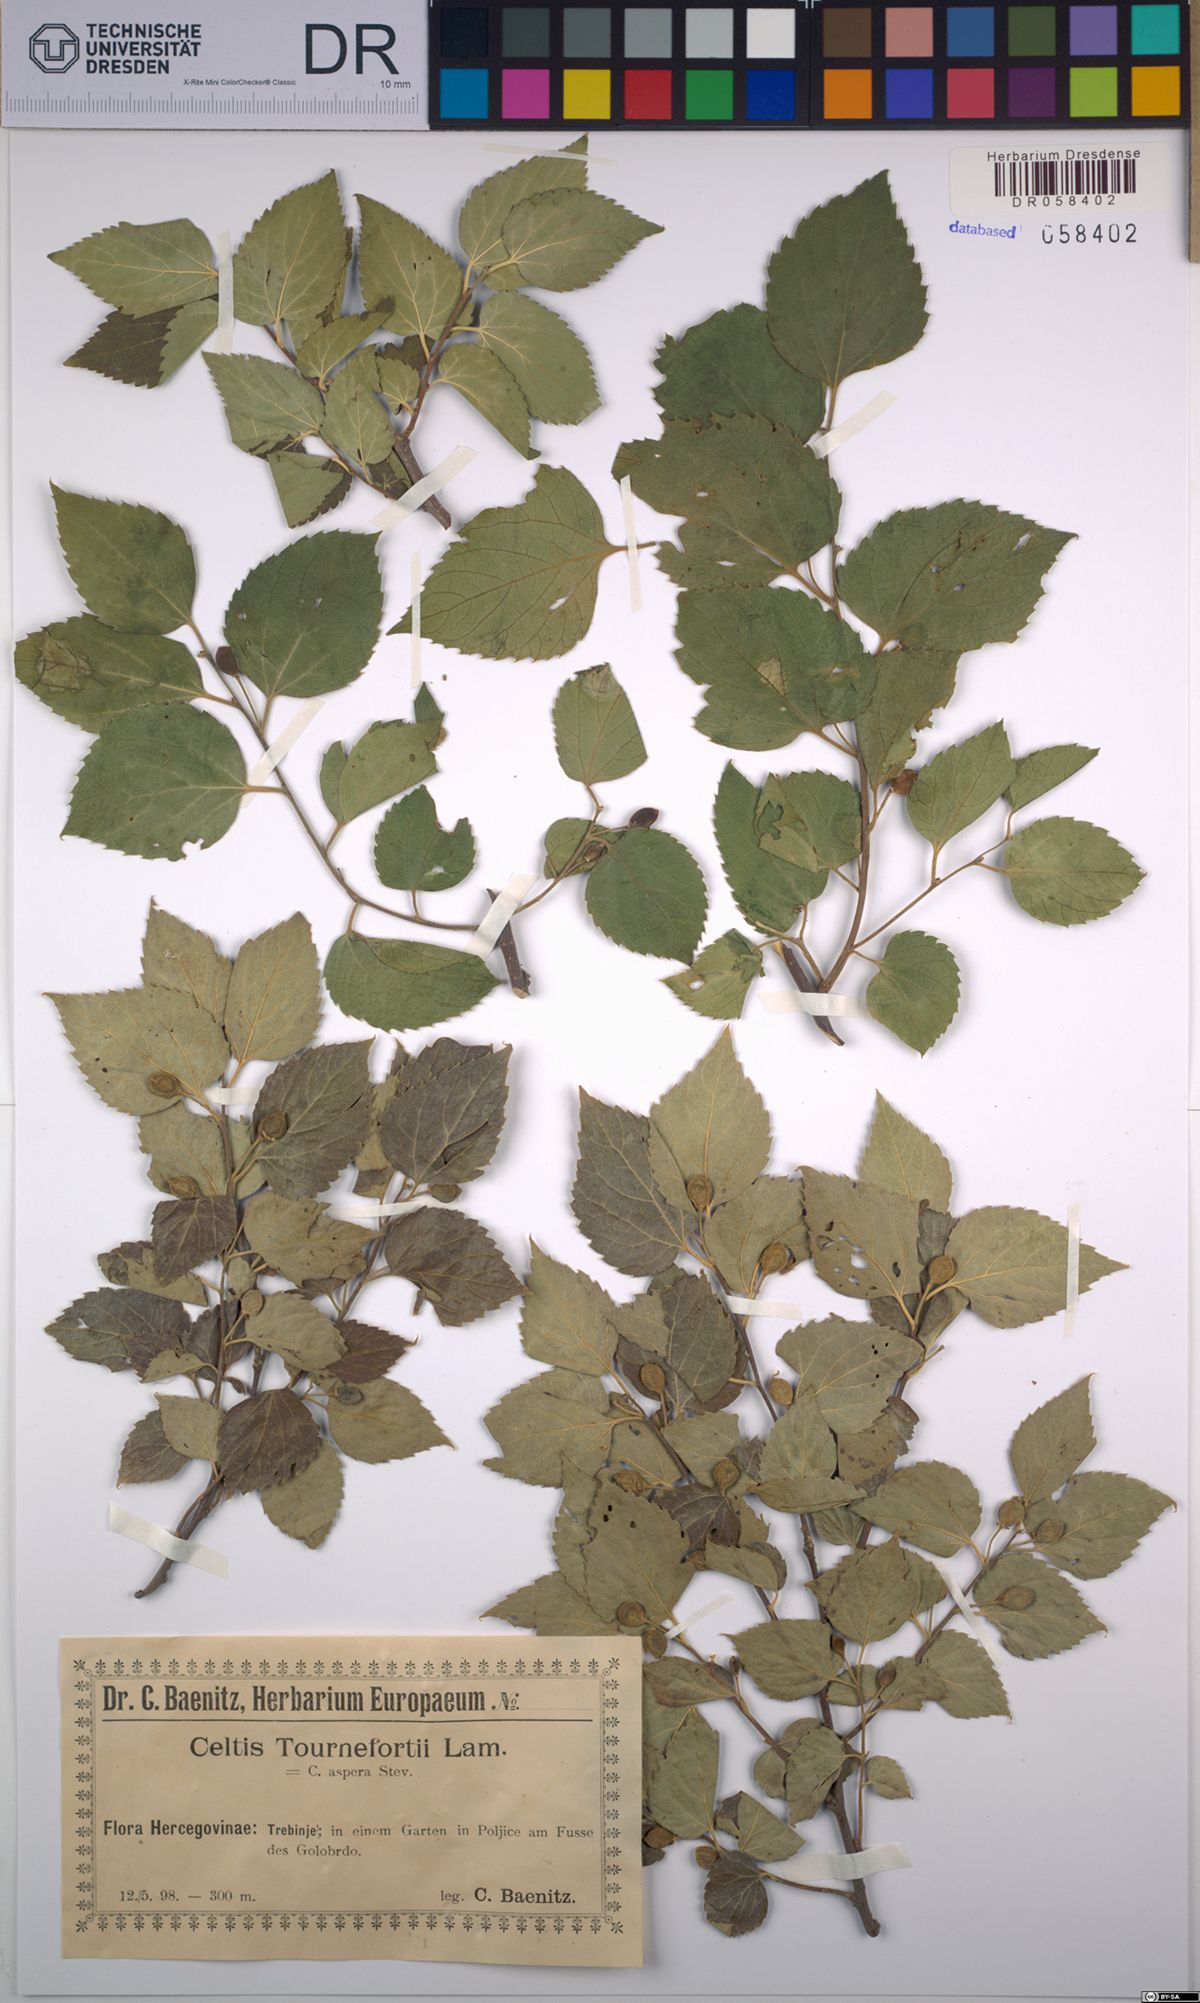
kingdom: Plantae
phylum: Tracheophyta
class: Magnoliopsida
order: Rosales
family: Cannabaceae
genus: Celtis
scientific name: Celtis tournefortii
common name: Oriental hackberry
